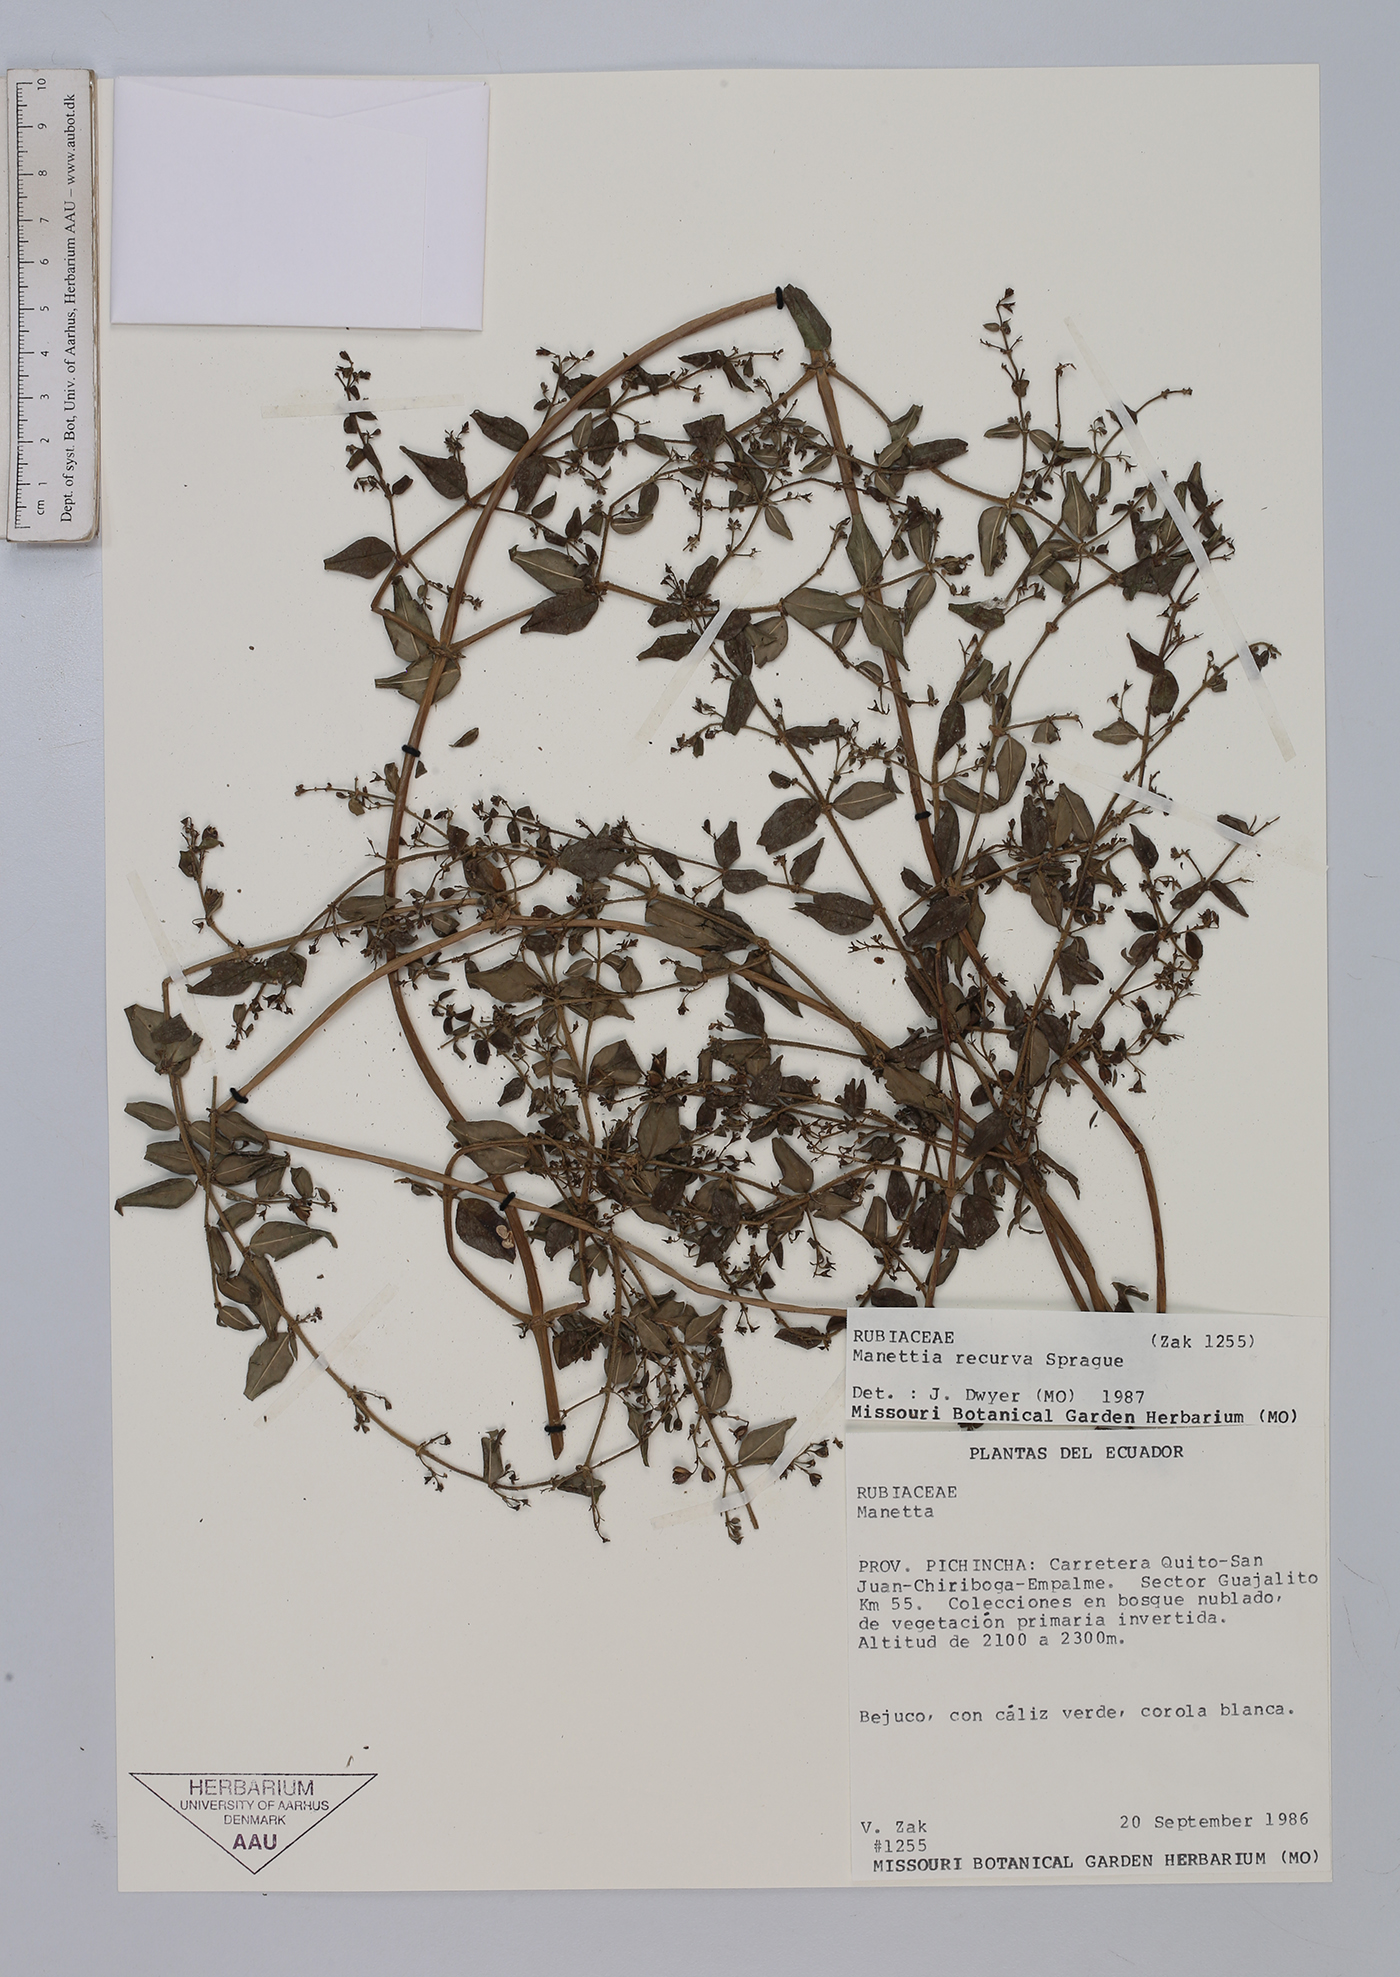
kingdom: Plantae
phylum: Tracheophyta
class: Magnoliopsida
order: Gentianales
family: Rubiaceae
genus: Manettia
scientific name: Manettia recurva
